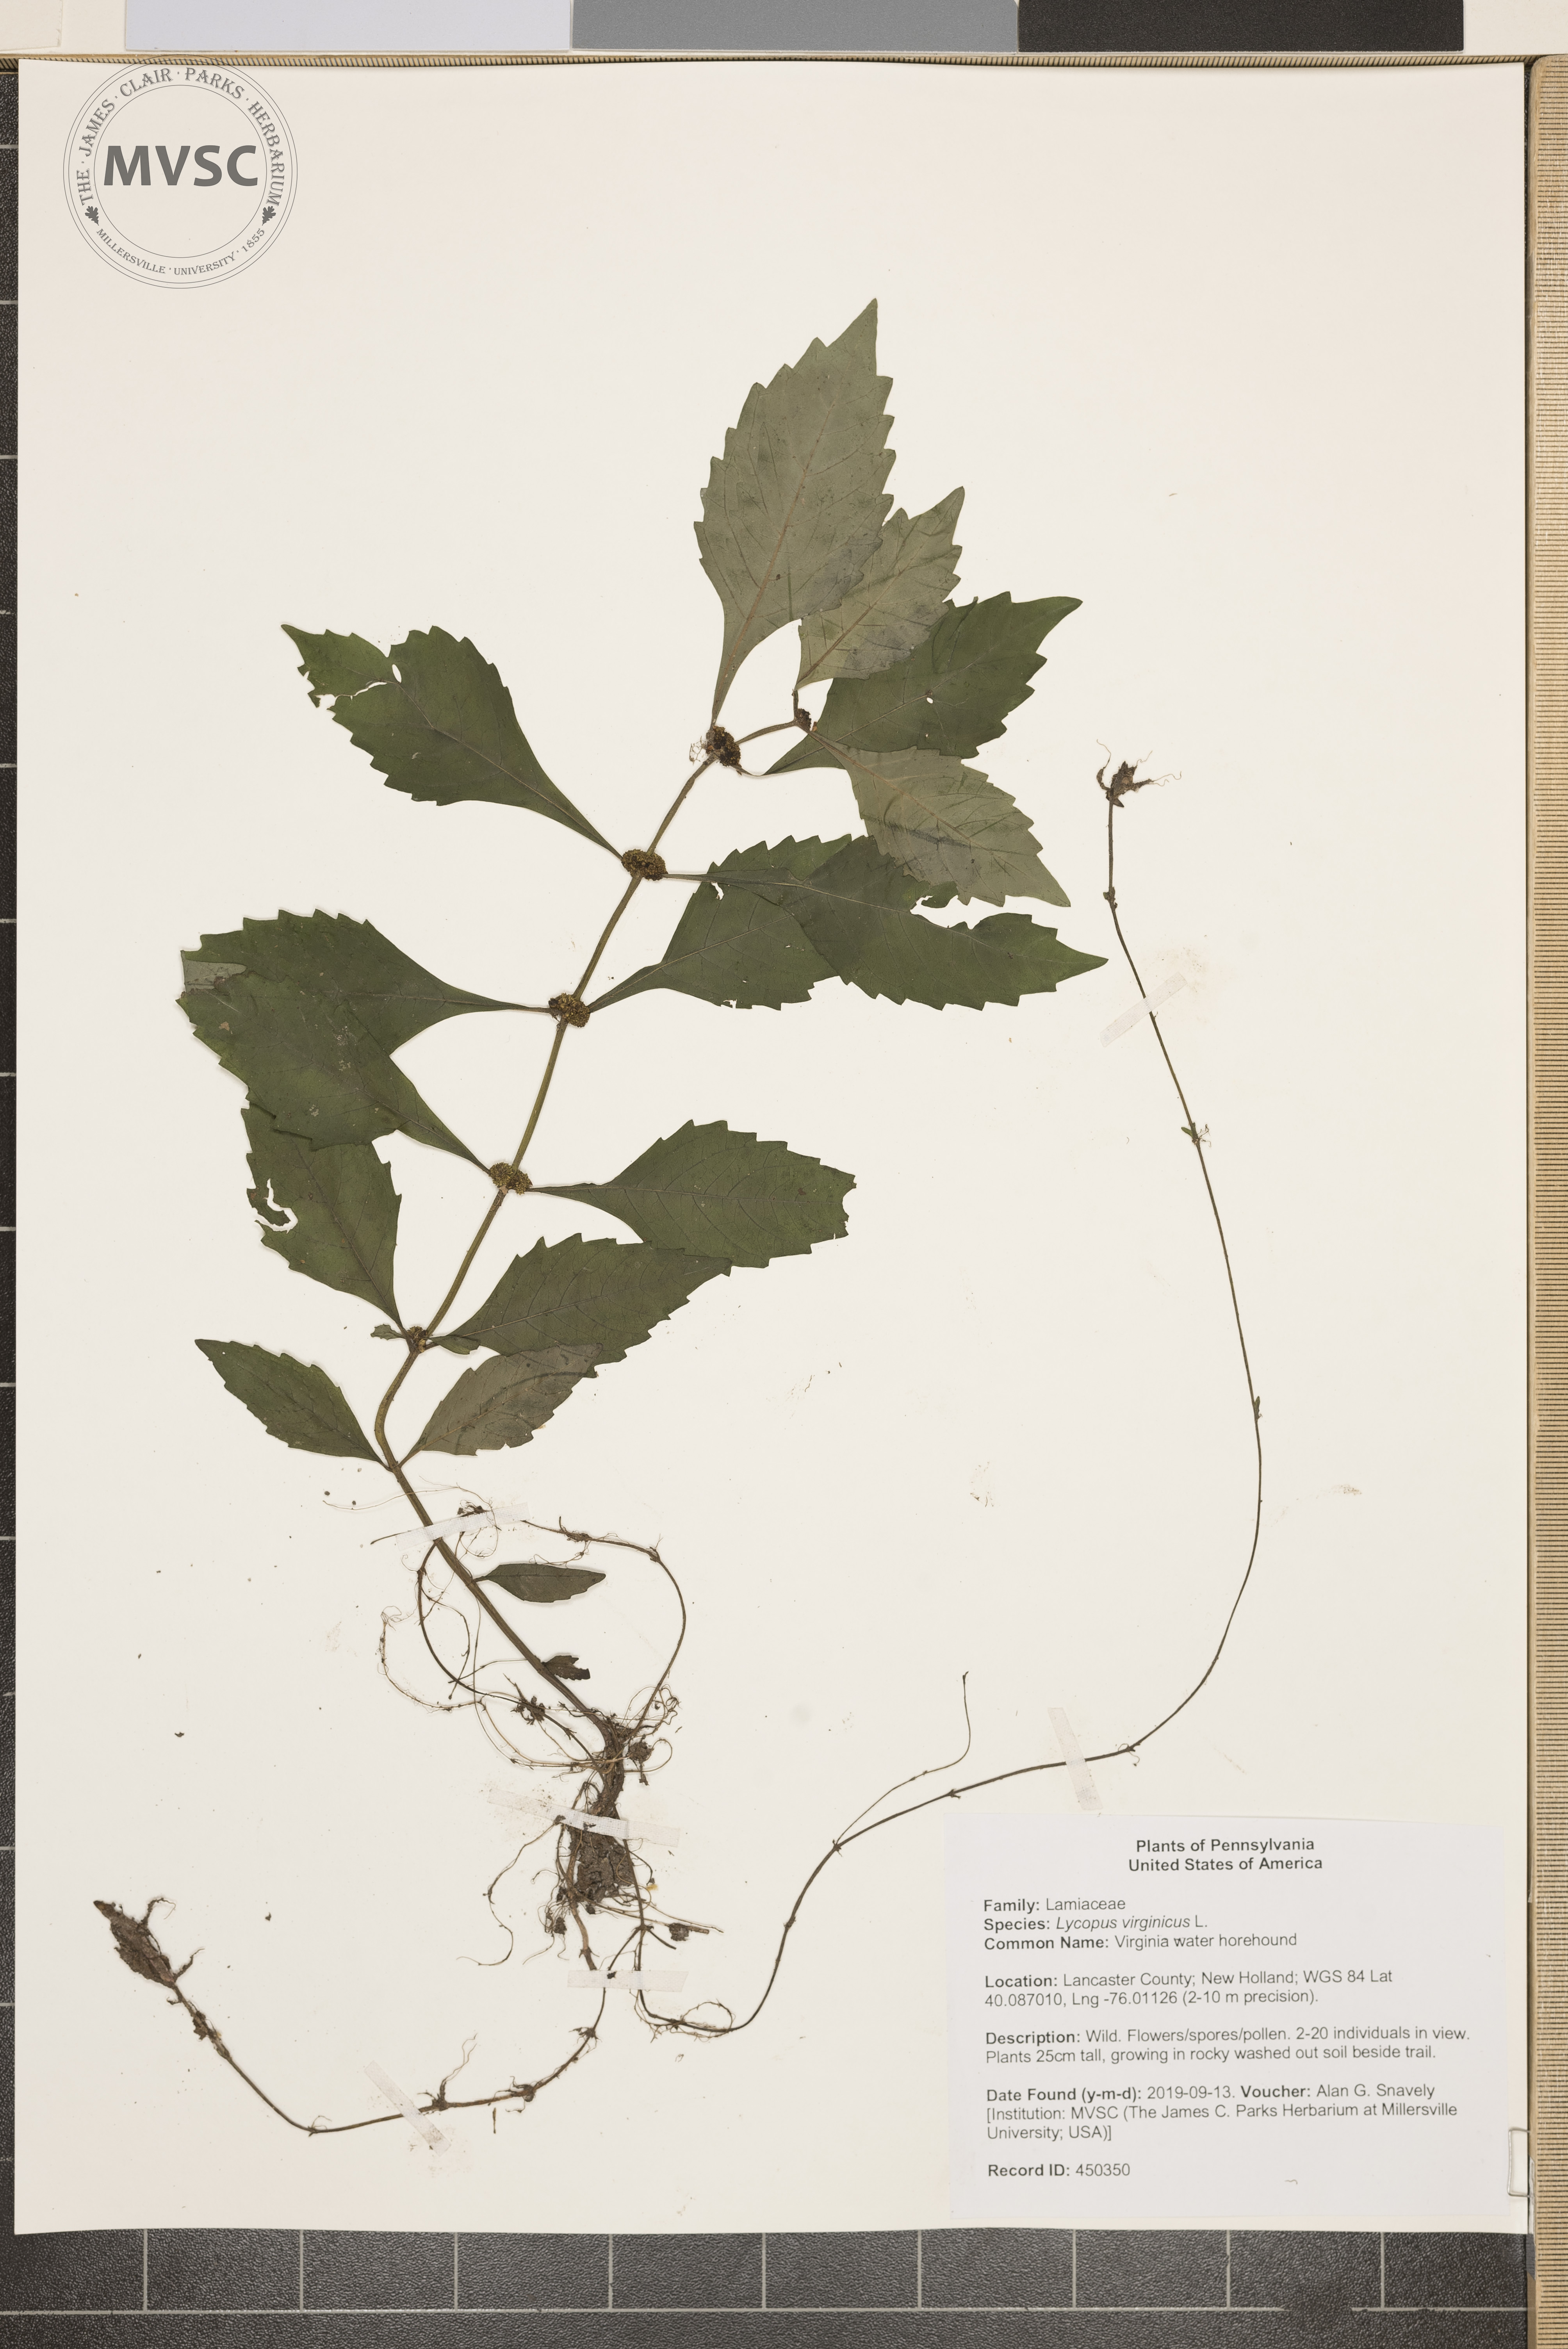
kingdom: Plantae
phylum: Tracheophyta
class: Magnoliopsida
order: Lamiales
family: Lamiaceae
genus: Lycopus
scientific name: Lycopus virginicus
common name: Virginia water horehound
